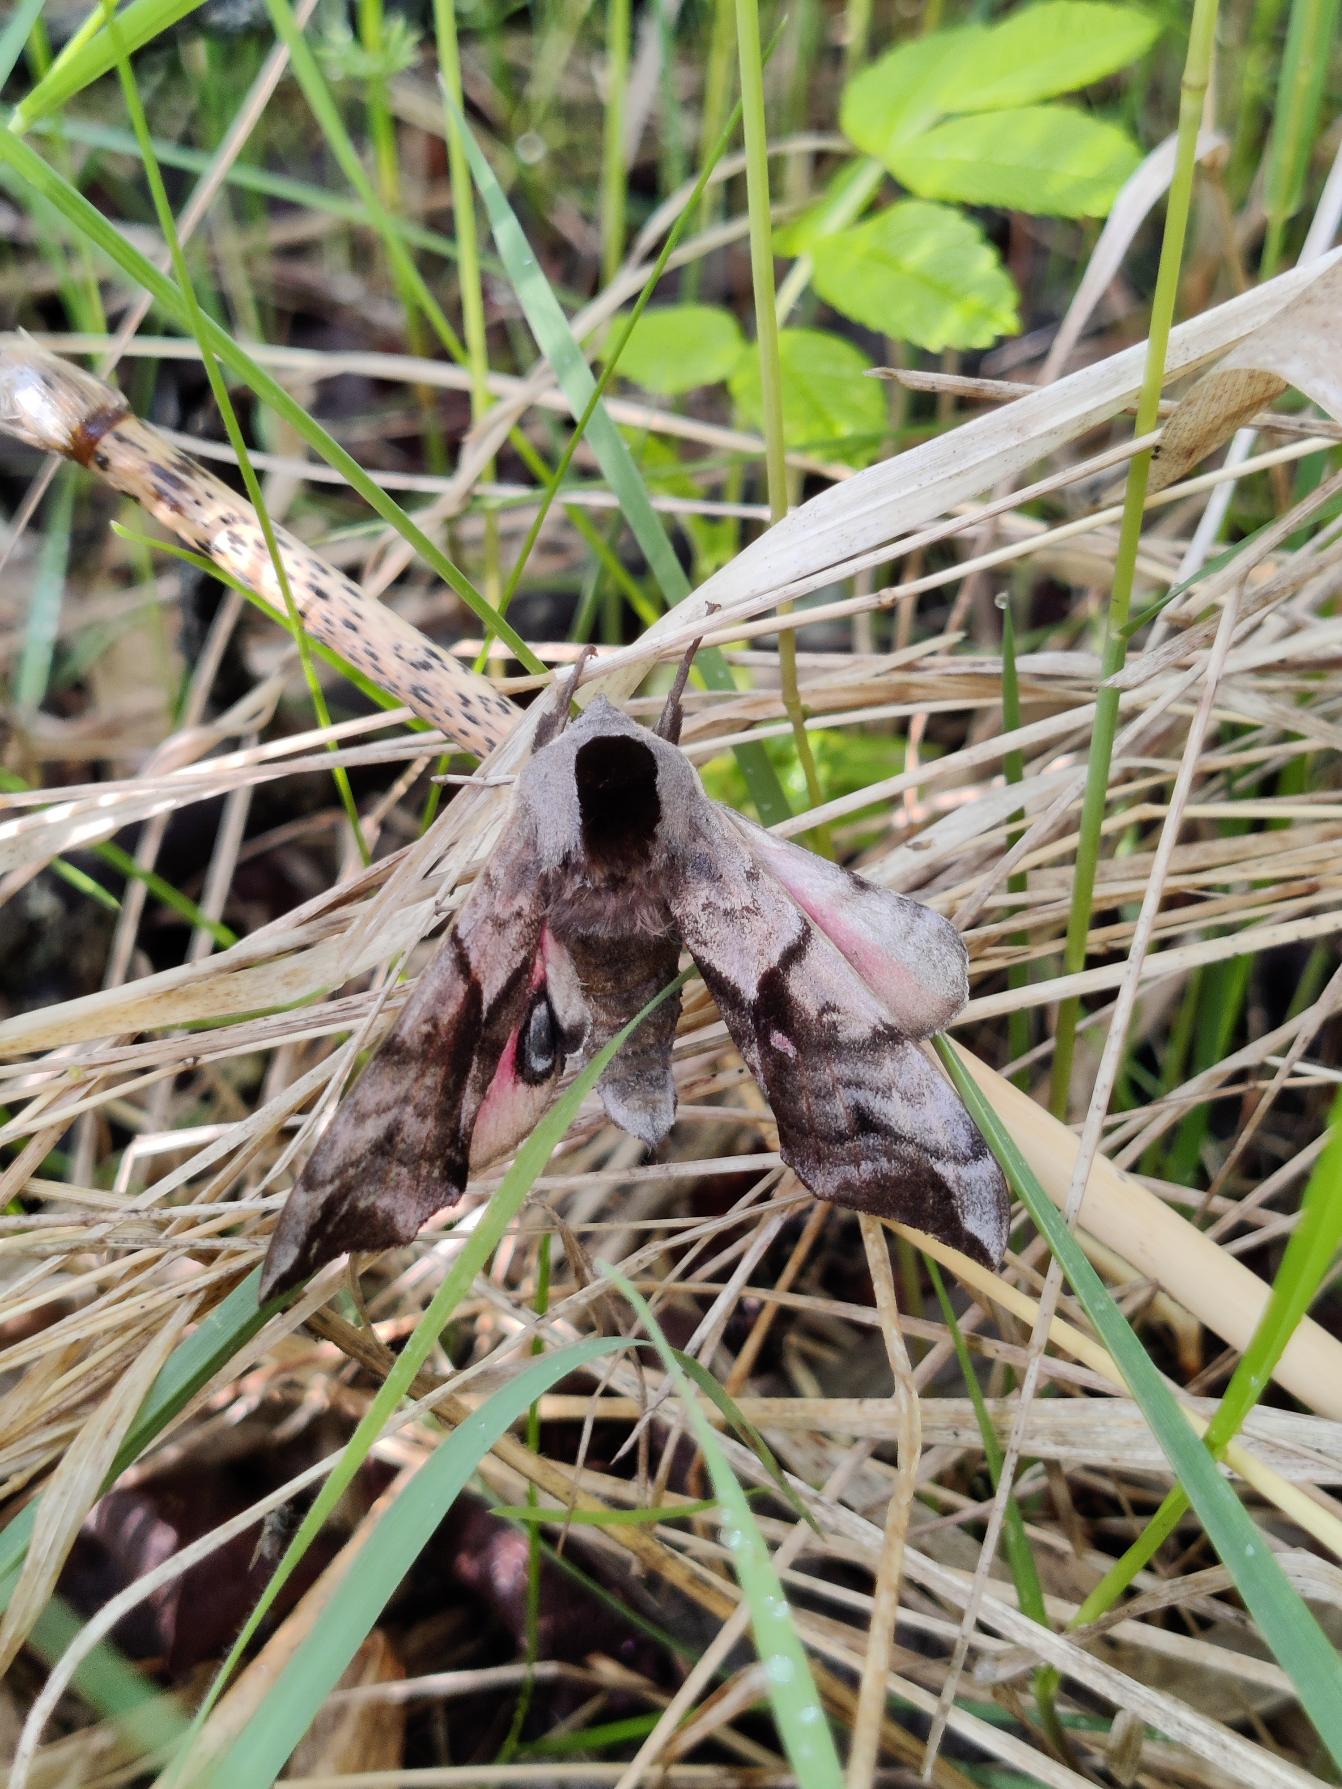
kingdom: Animalia
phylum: Arthropoda
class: Insecta
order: Lepidoptera
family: Sphingidae
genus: Smerinthus
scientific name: Smerinthus ocellata
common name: Aftenpåfugleøje
